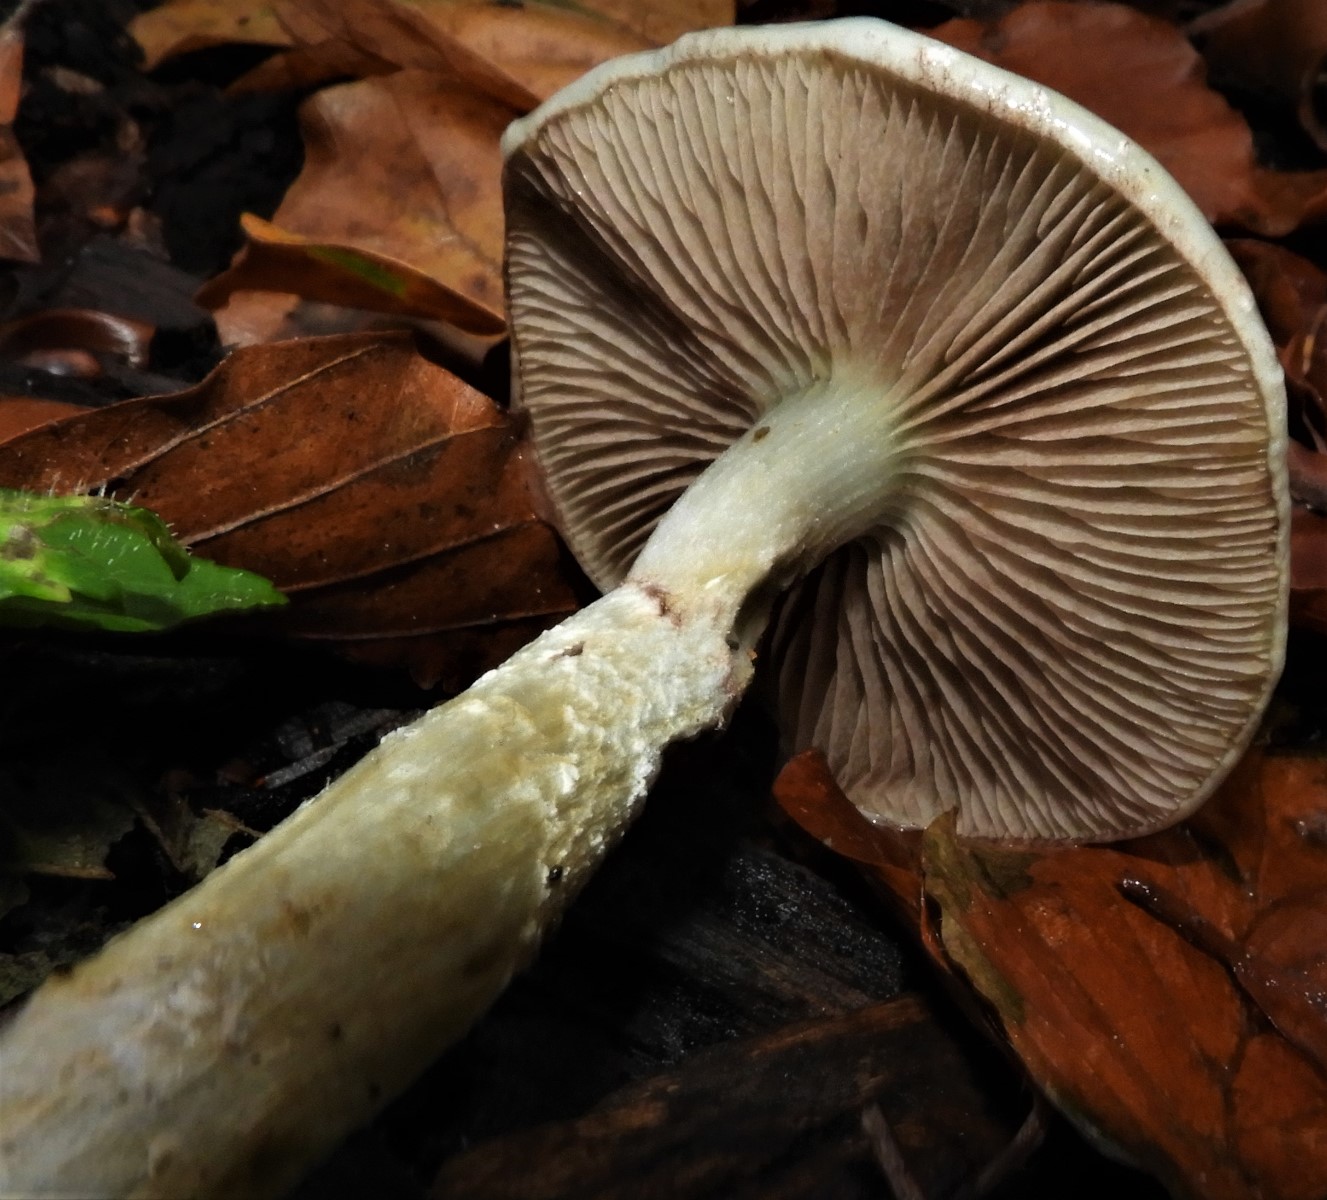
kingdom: Fungi
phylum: Basidiomycota
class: Agaricomycetes
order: Agaricales
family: Strophariaceae
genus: Stropharia
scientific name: Stropharia cyanea
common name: blågrøn bredblad
